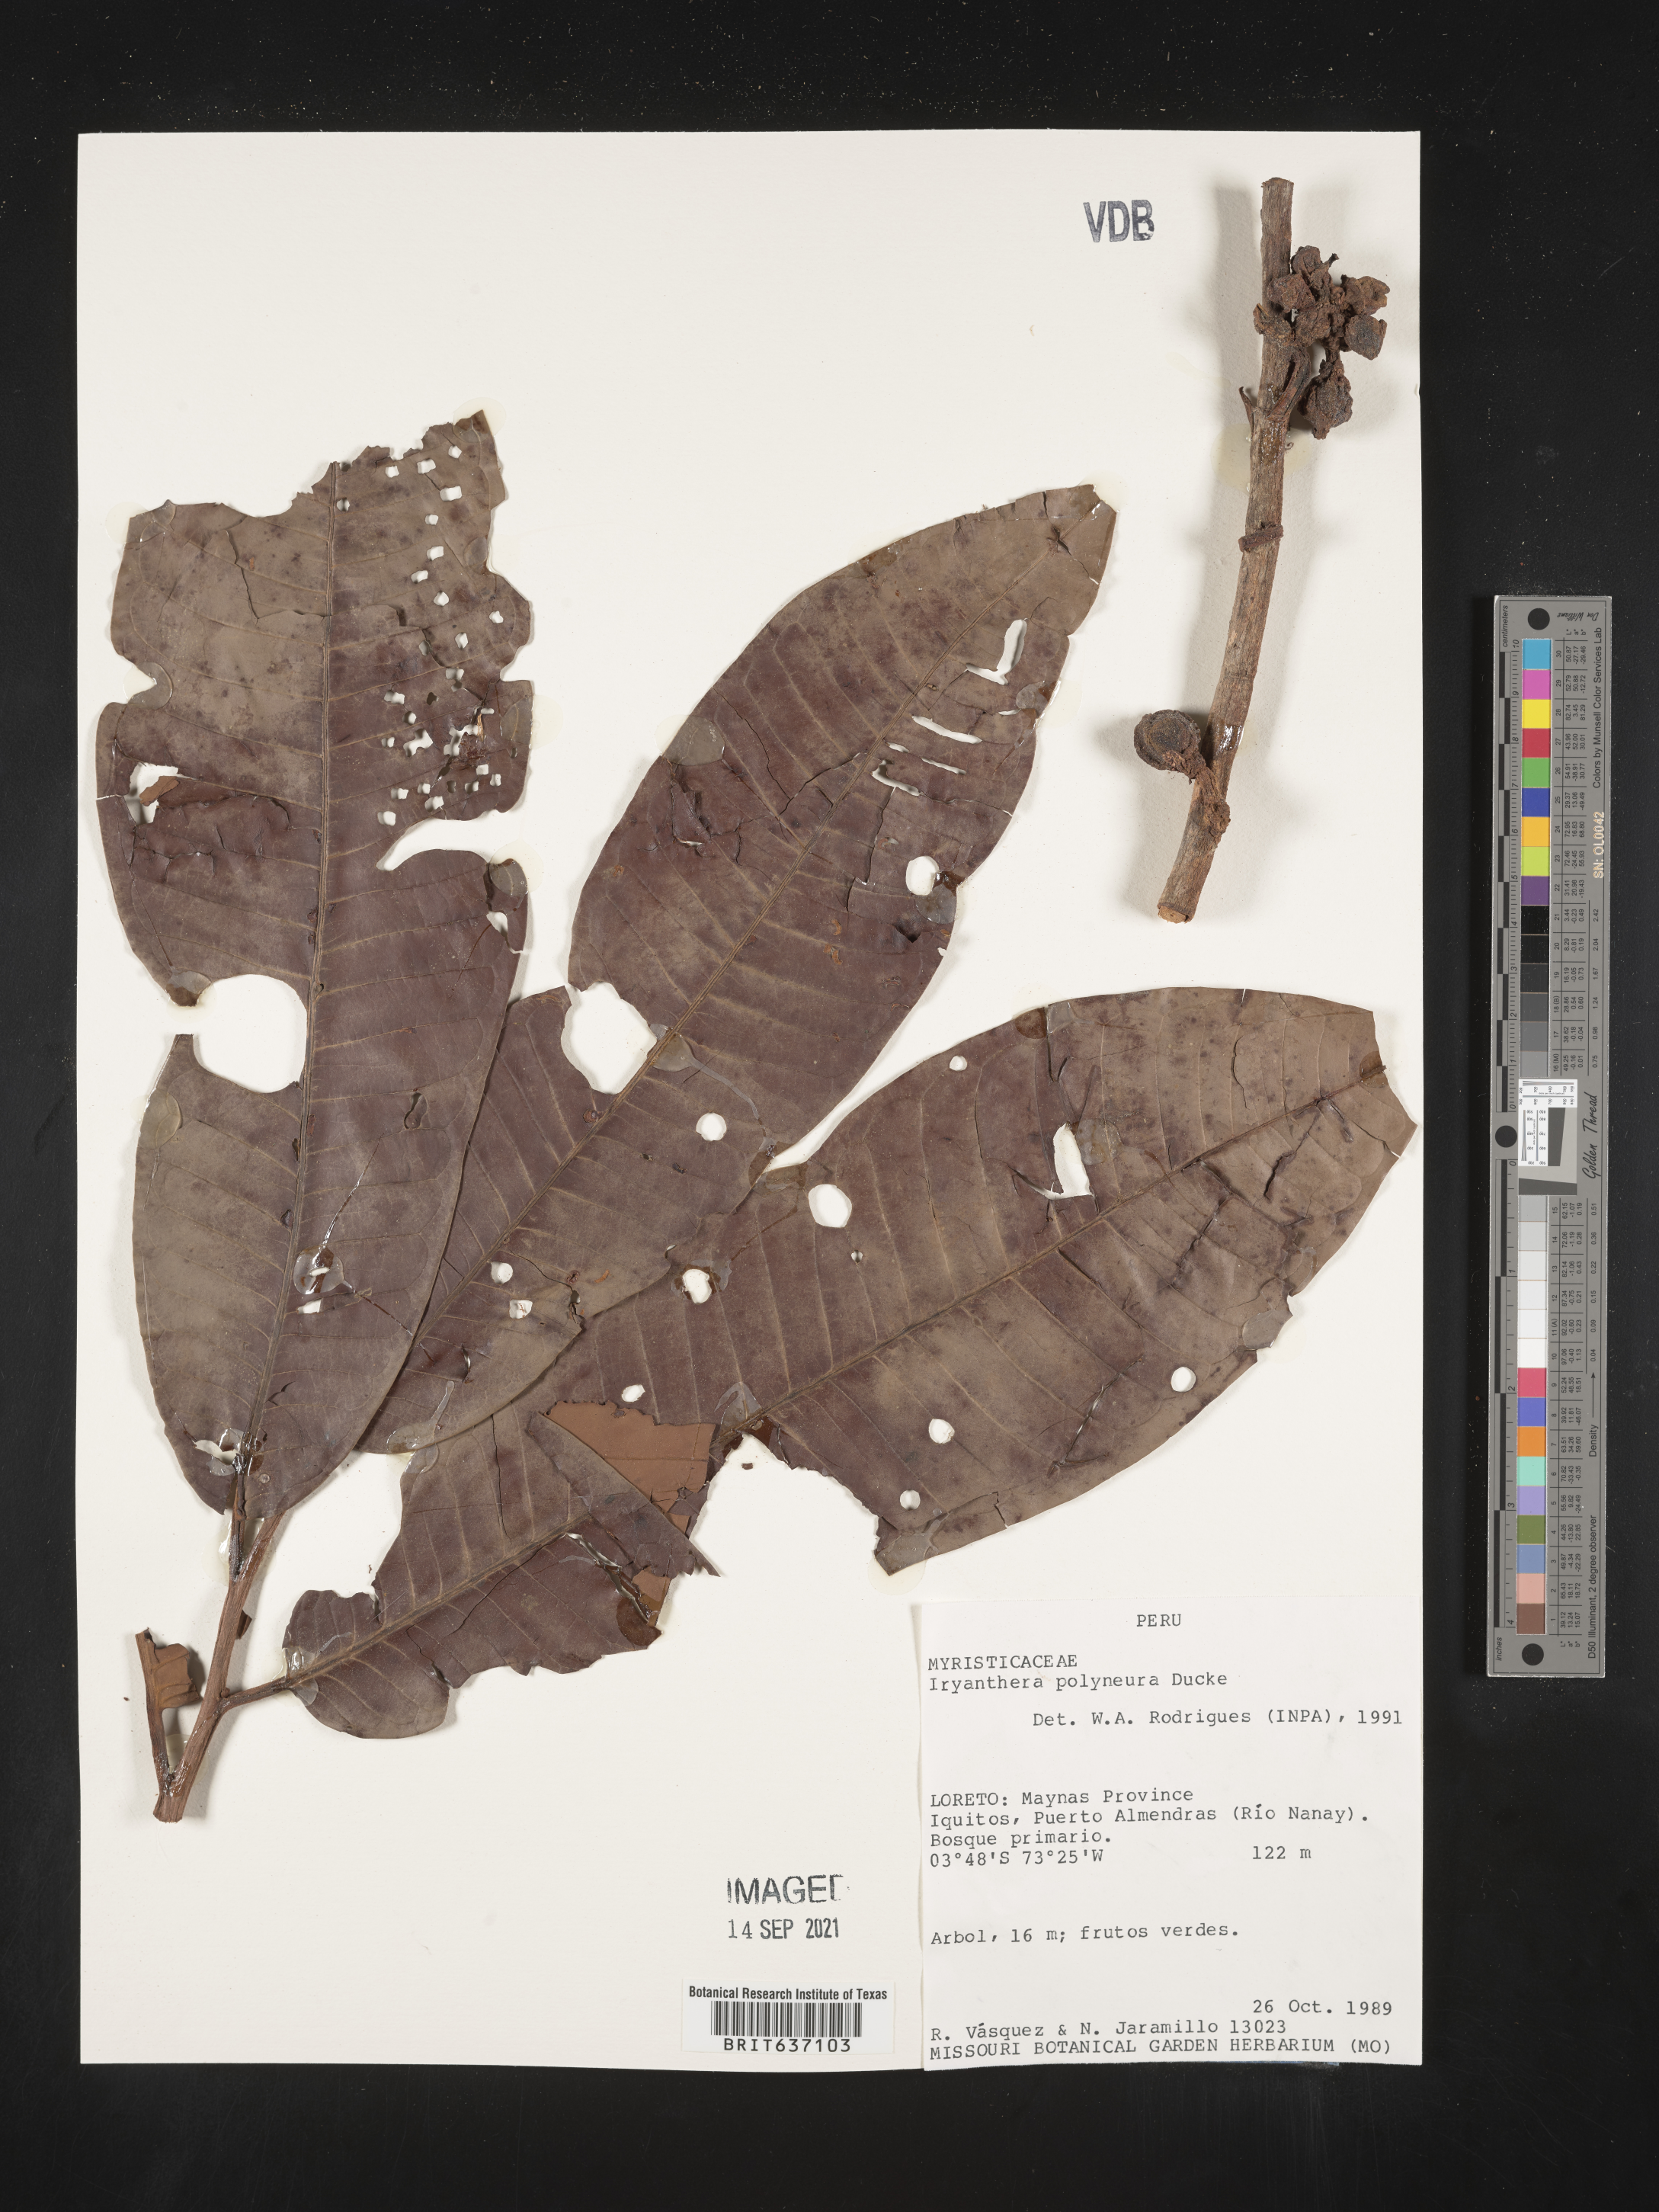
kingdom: Plantae
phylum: Tracheophyta
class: Magnoliopsida
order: Magnoliales
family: Myristicaceae
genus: Iryanthera
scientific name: Iryanthera
